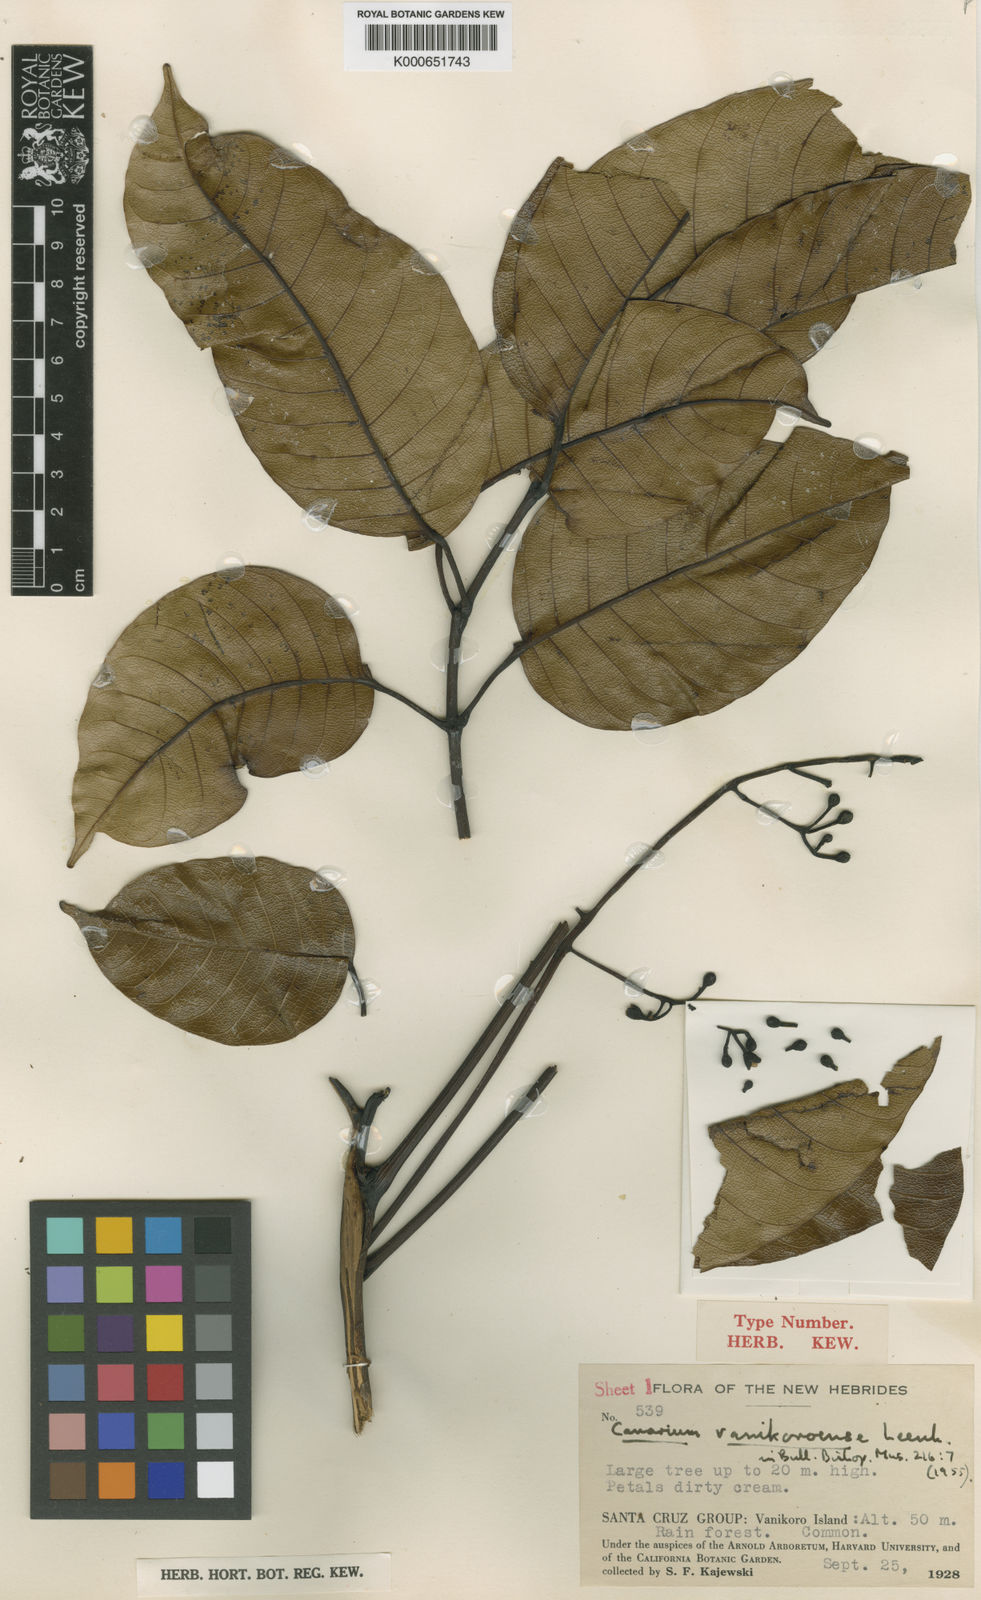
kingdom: Plantae
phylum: Tracheophyta
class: Magnoliopsida
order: Sapindales
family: Burseraceae
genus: Canarium
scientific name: Canarium vanikoroense
